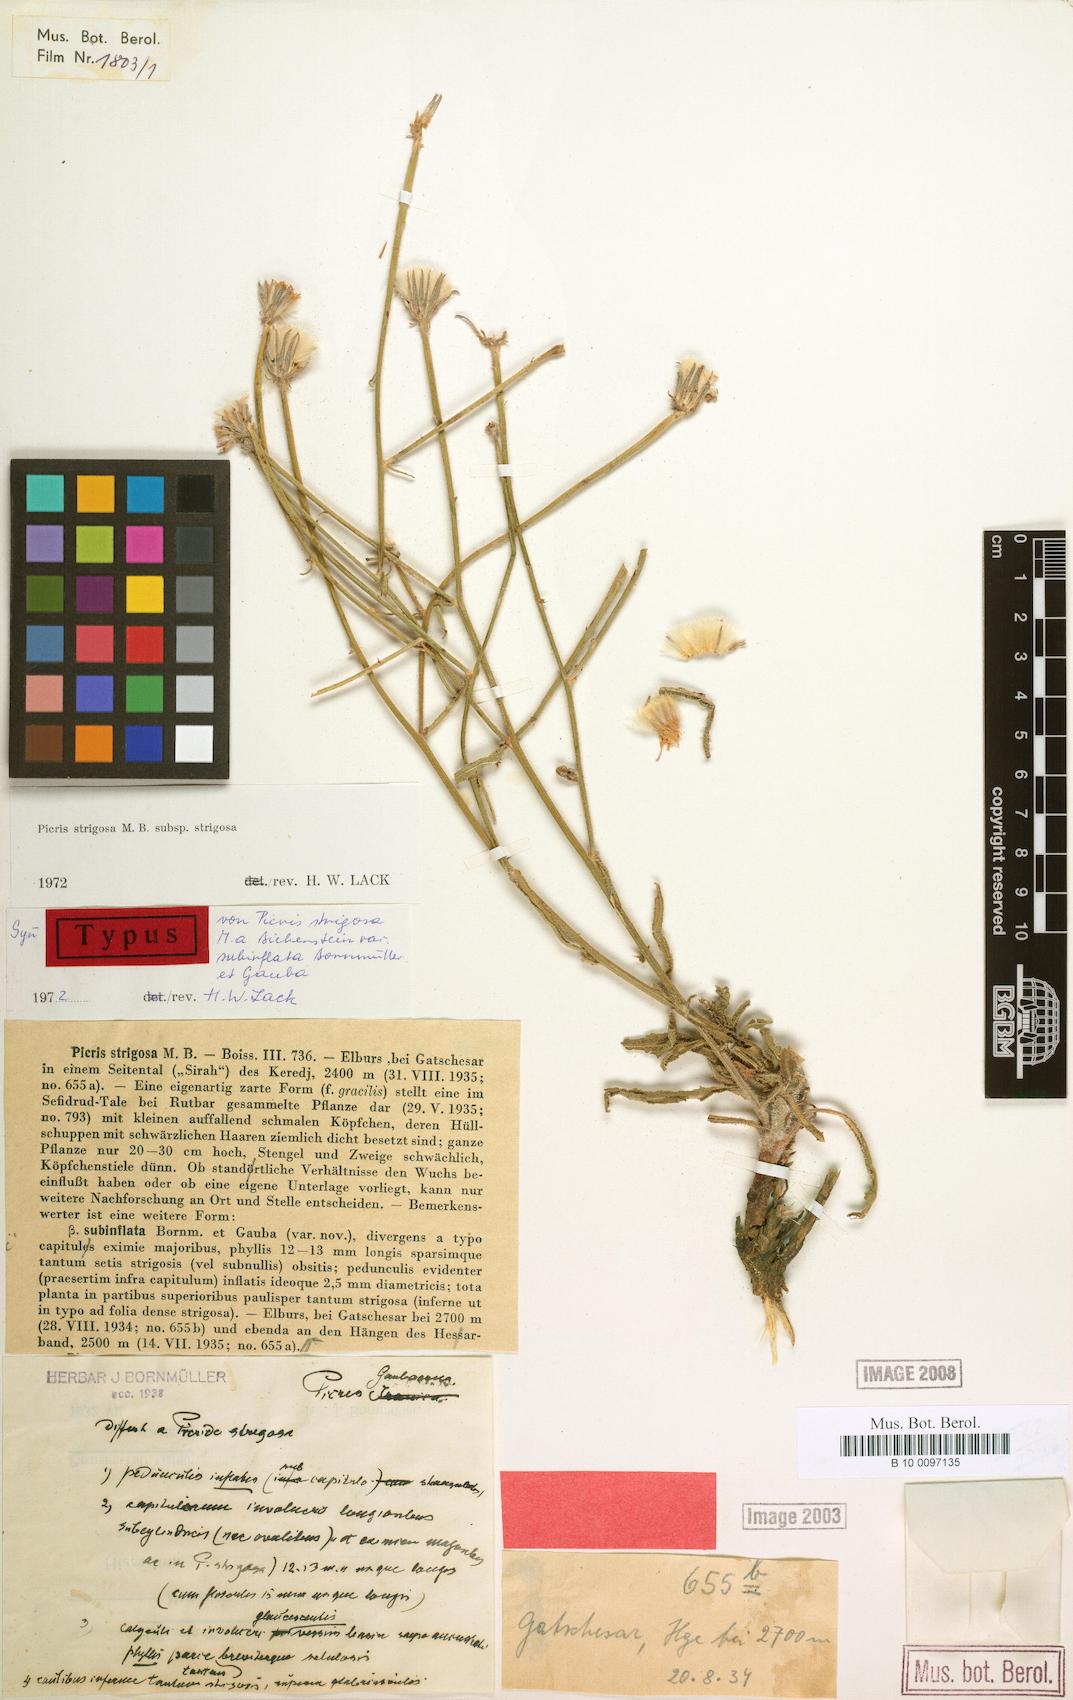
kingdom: Plantae
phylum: Tracheophyta
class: Magnoliopsida
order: Asterales
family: Asteraceae
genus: Picris
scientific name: Picris strigosa
